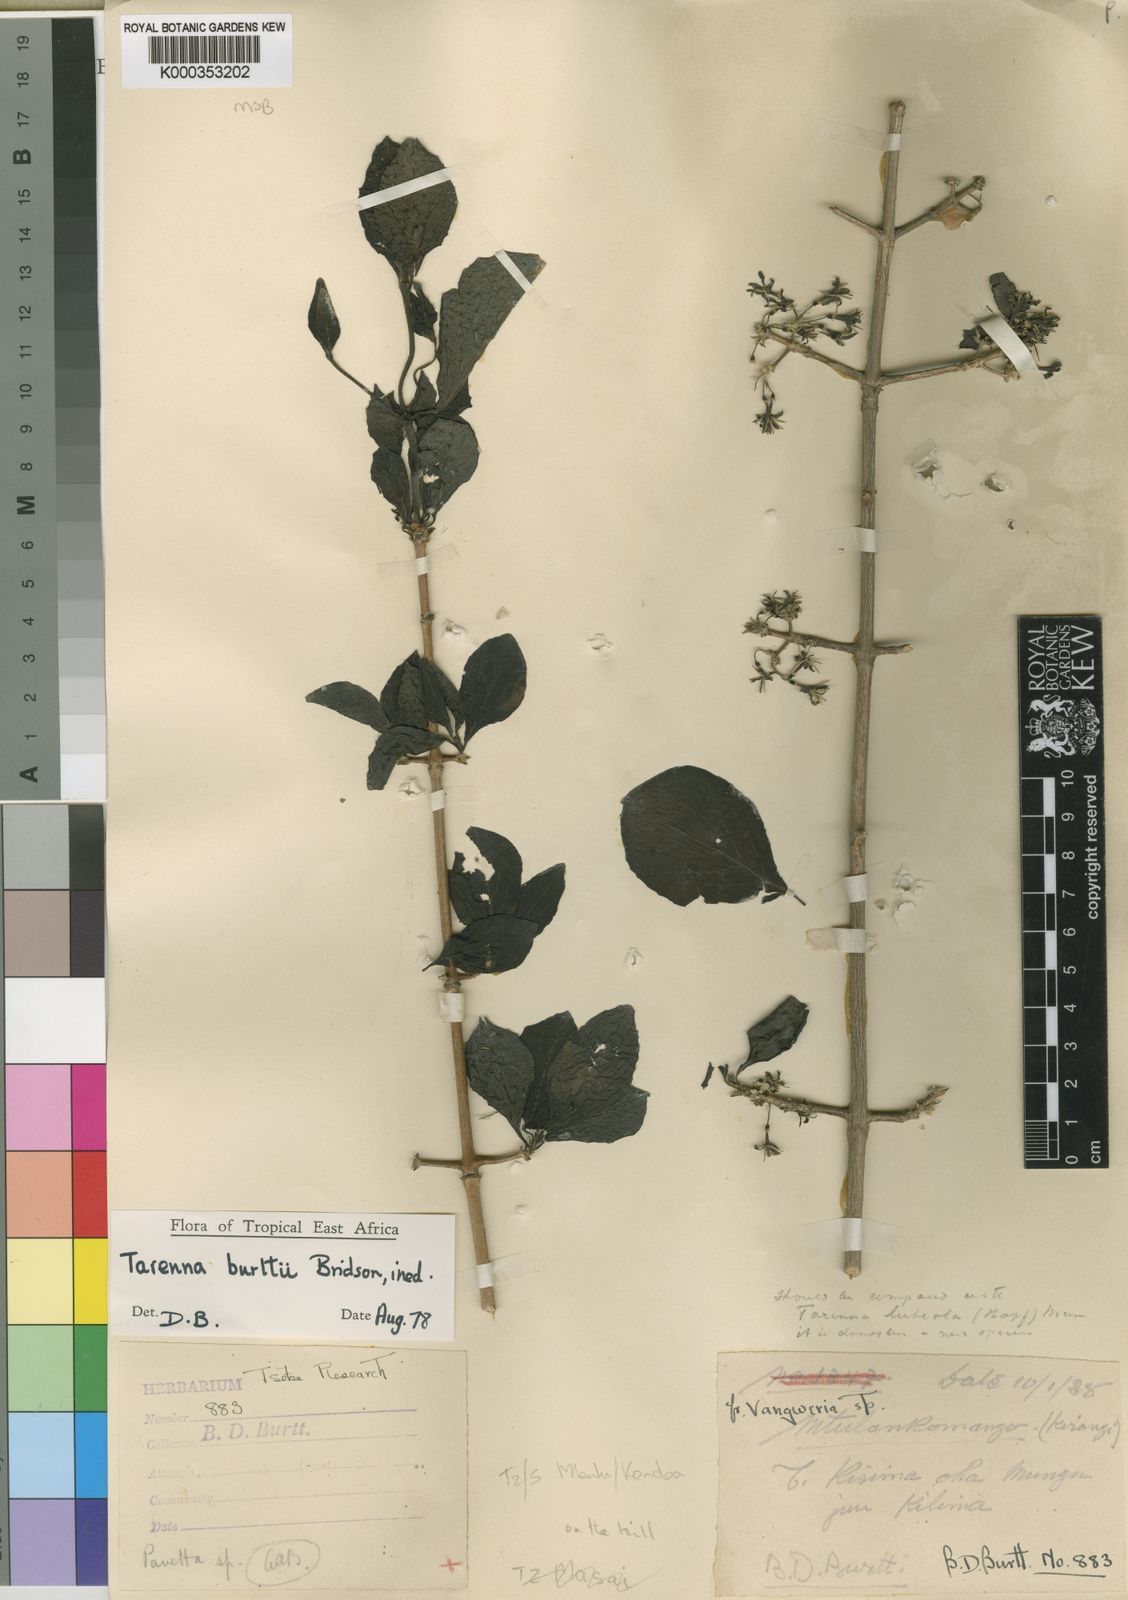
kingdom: Plantae
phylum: Tracheophyta
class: Magnoliopsida
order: Gentianales
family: Rubiaceae
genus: Tarenna
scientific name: Tarenna burttii
